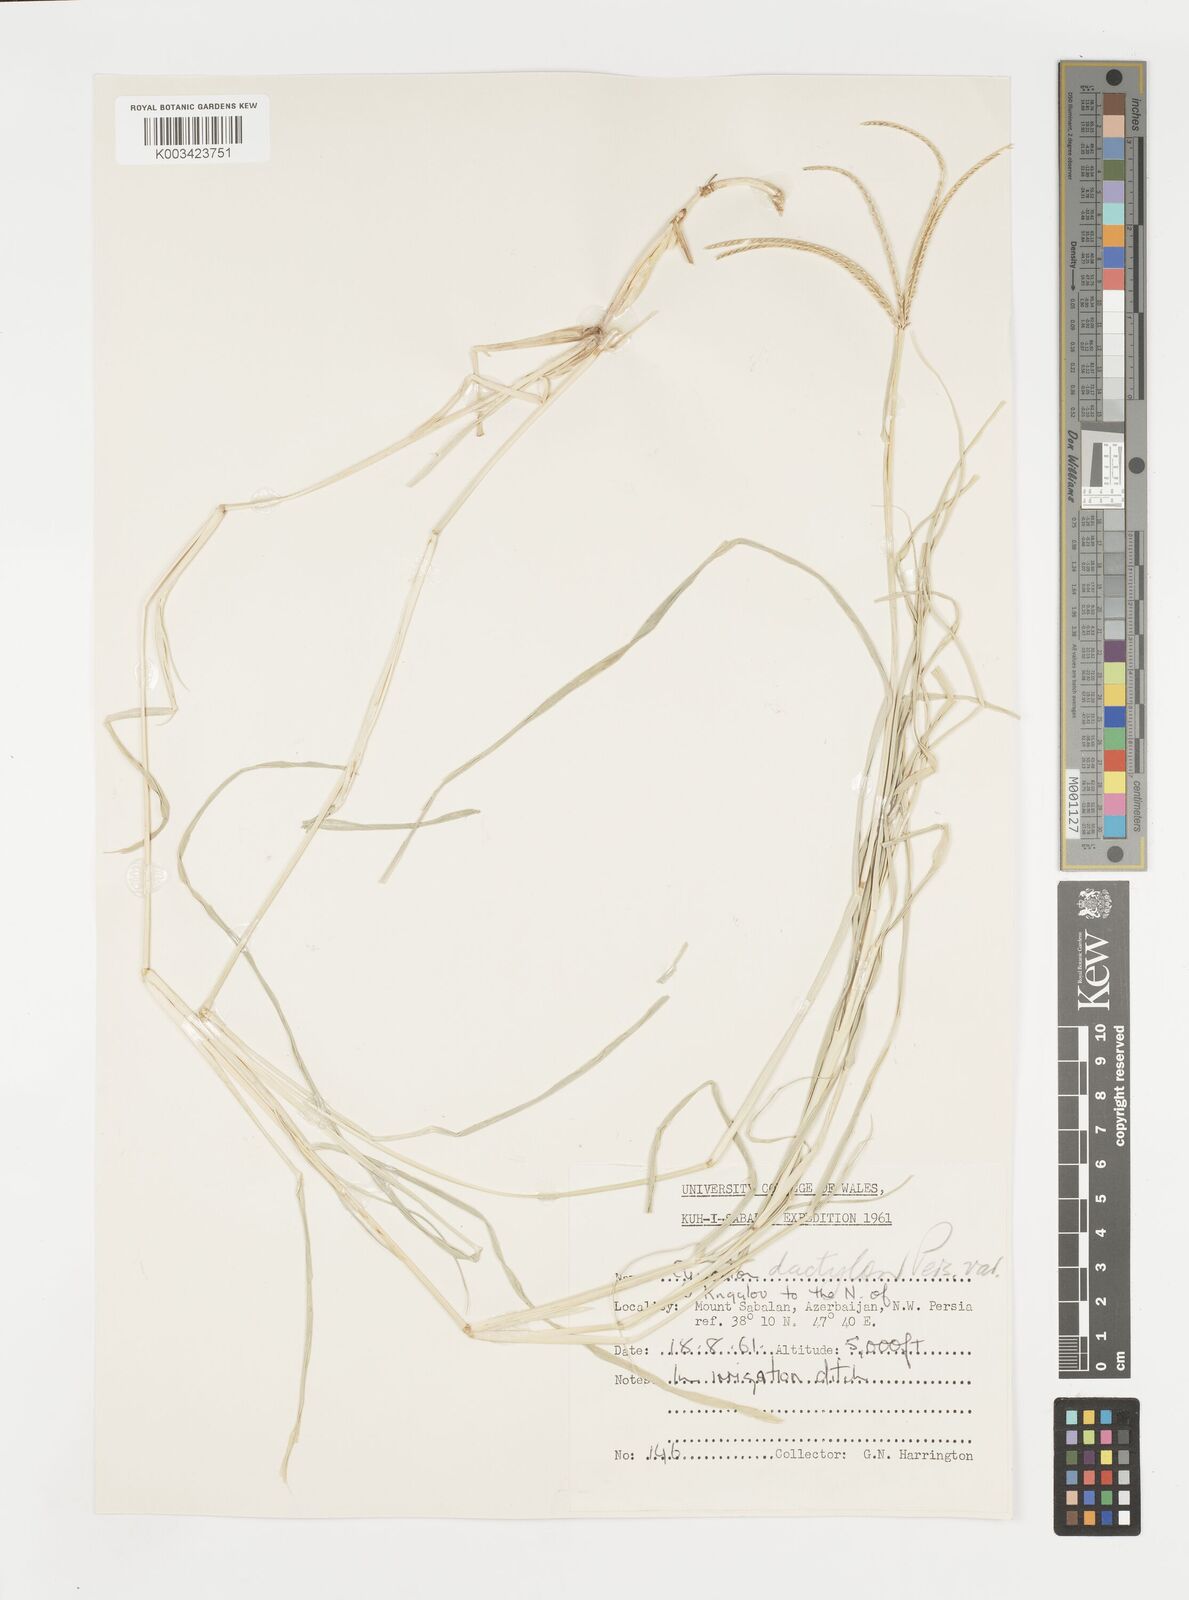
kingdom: Plantae
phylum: Tracheophyta
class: Liliopsida
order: Poales
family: Poaceae
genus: Cynodon
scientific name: Cynodon dactylon
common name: Bermuda grass
